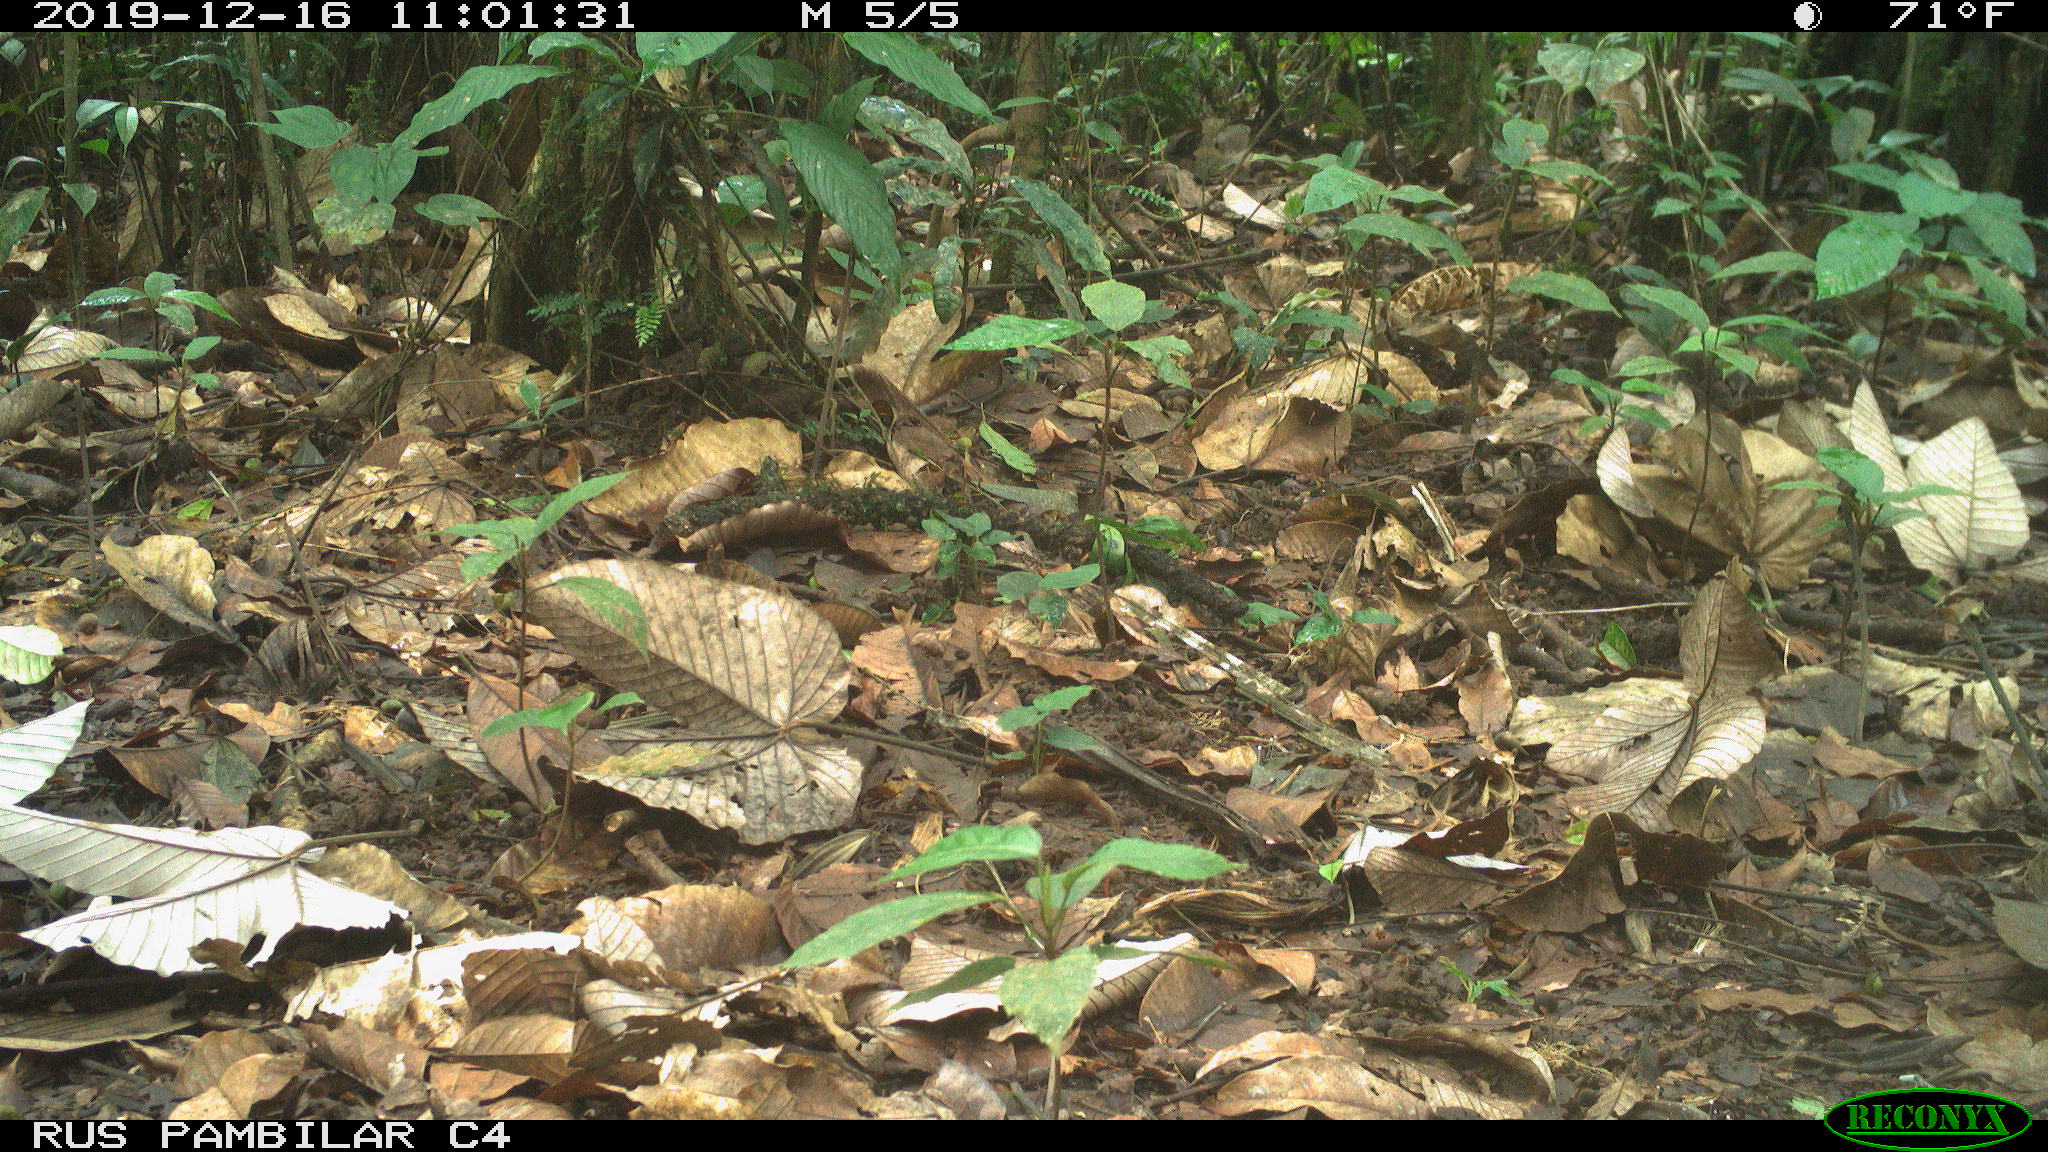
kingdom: Animalia
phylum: Chordata
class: Aves
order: Columbiformes
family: Columbidae
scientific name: Columbidae
